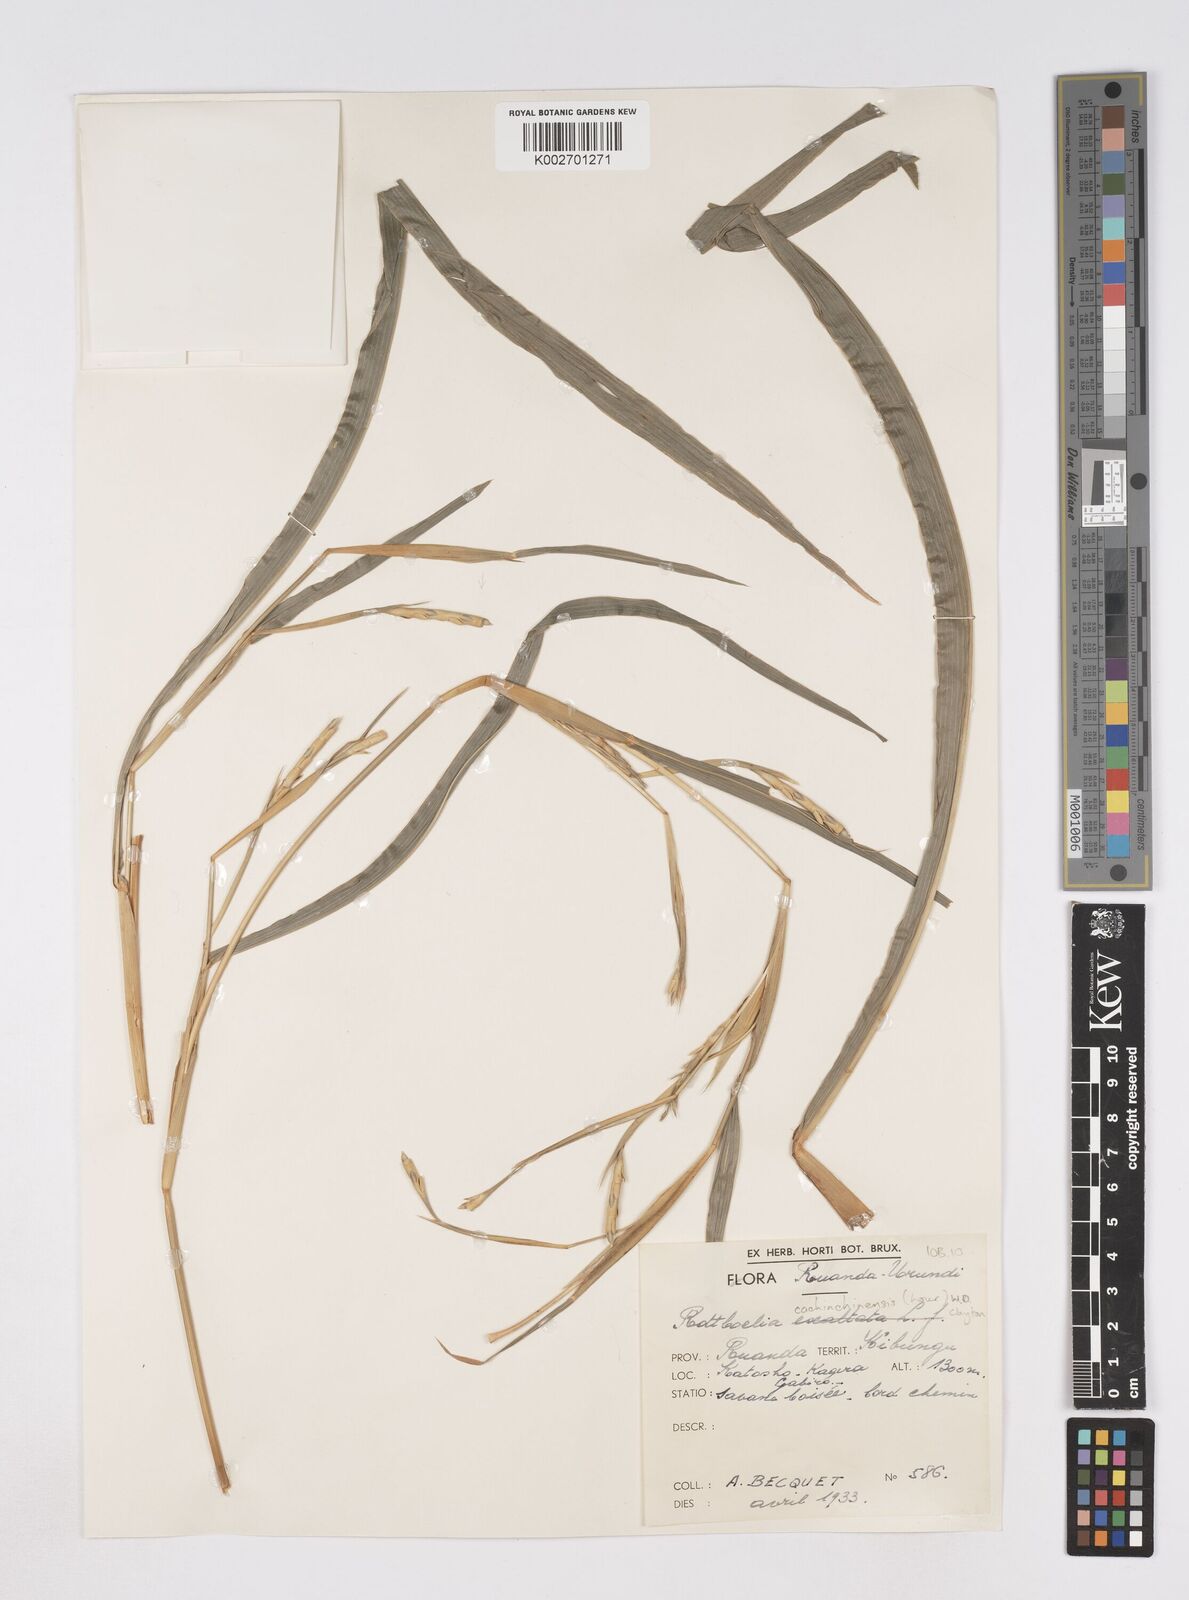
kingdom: Plantae
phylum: Tracheophyta
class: Liliopsida
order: Poales
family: Poaceae
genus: Rottboellia
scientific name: Rottboellia
